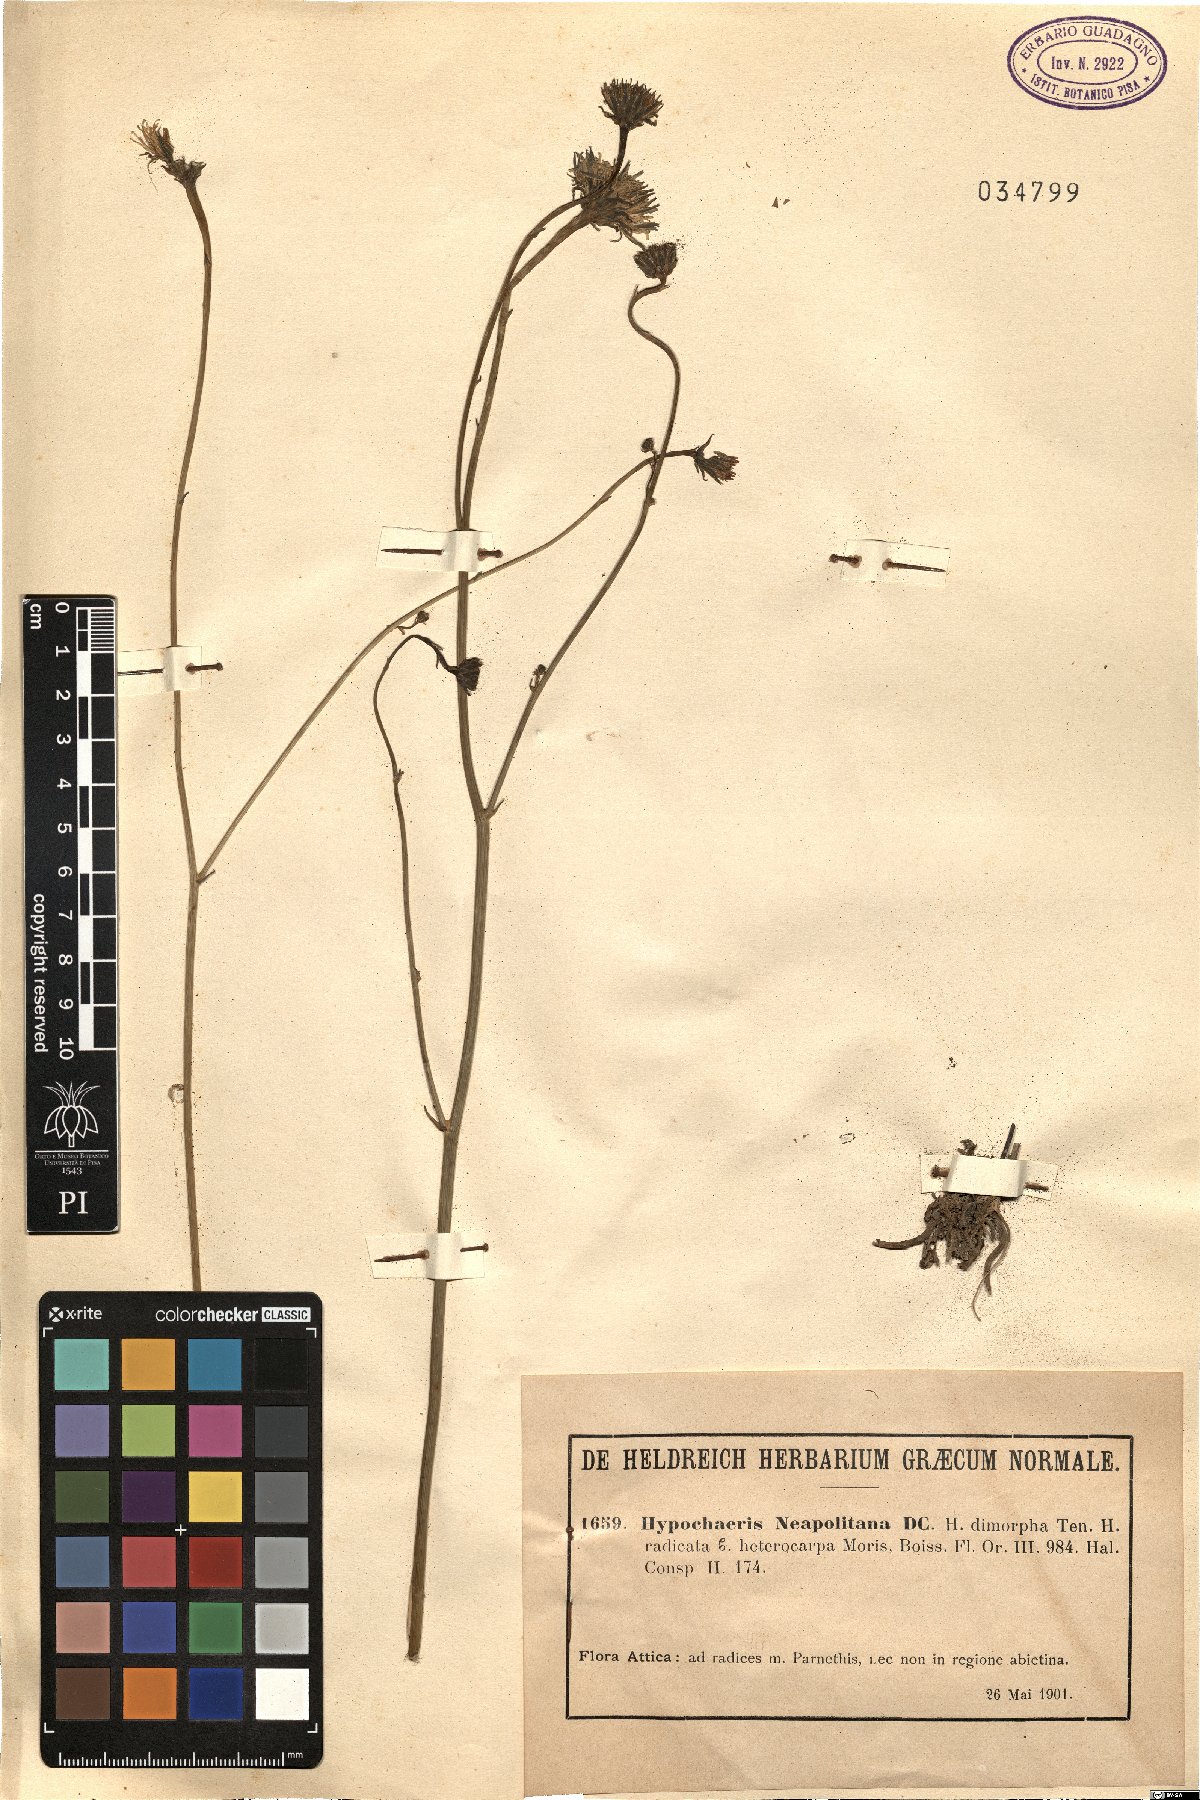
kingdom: Plantae
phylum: Tracheophyta
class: Magnoliopsida
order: Asterales
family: Asteraceae
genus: Hypochaeris
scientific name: Hypochaeris radicata
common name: Flatweed
